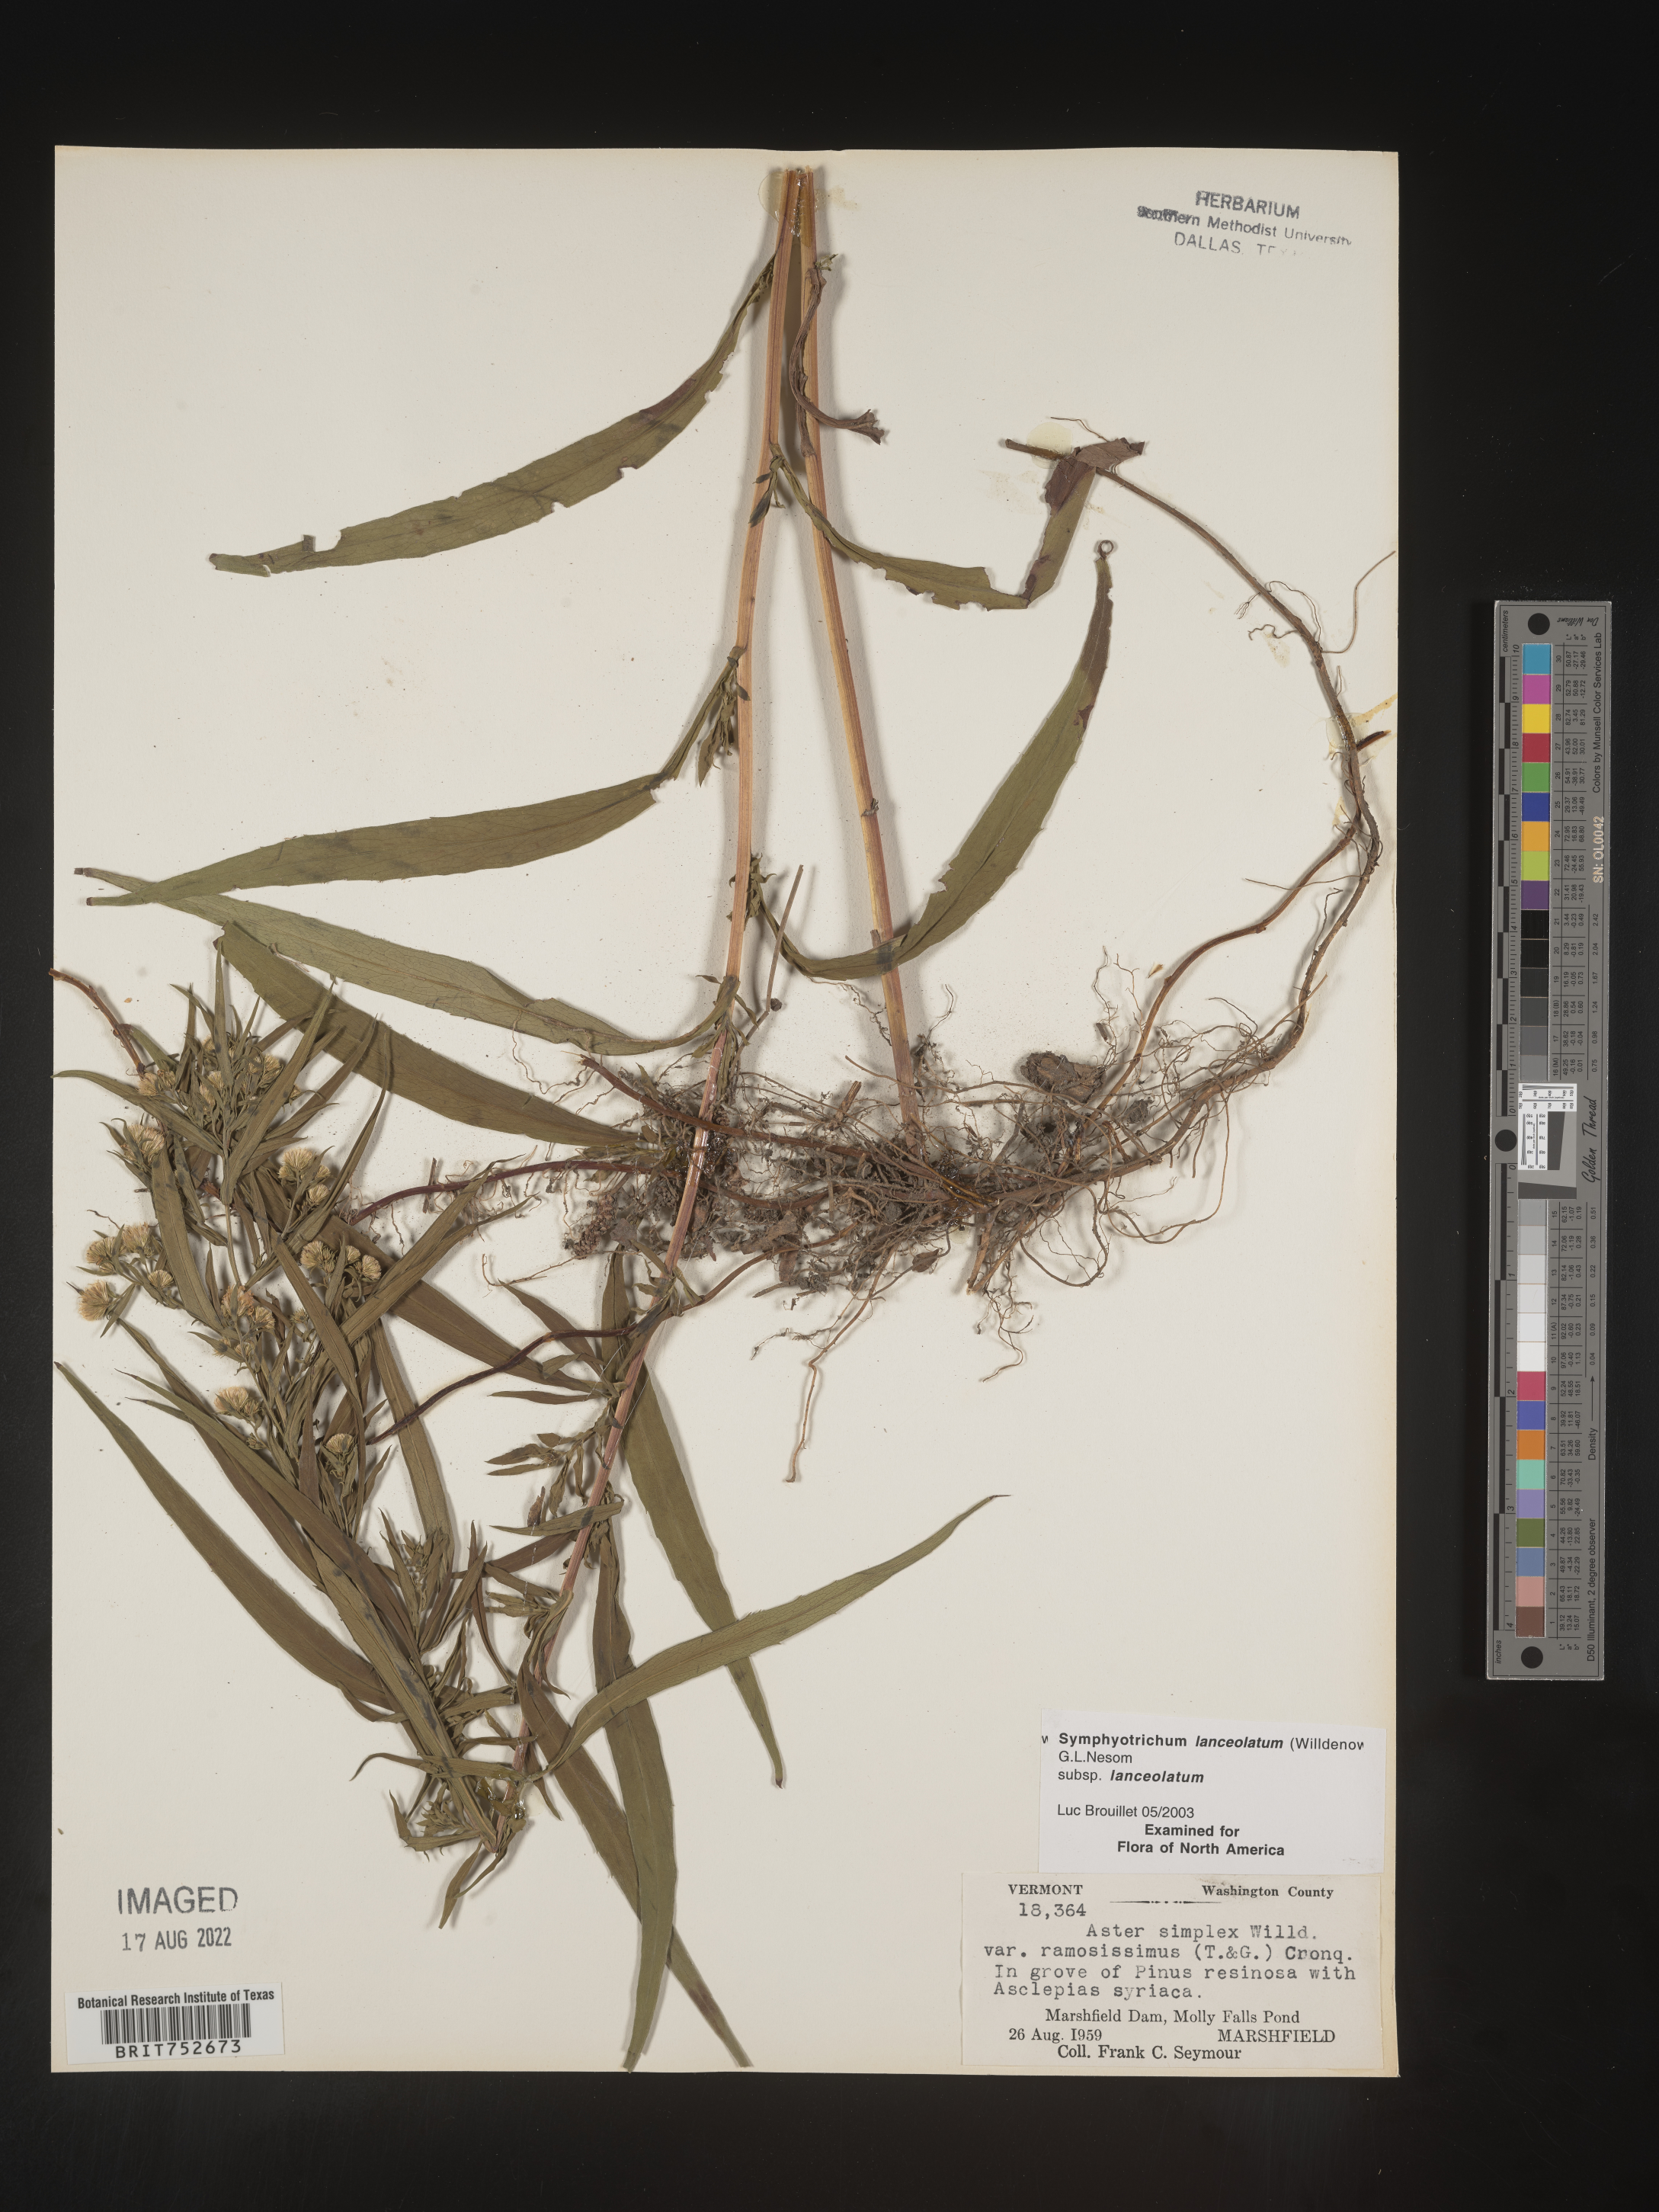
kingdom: Plantae
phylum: Tracheophyta
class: Magnoliopsida
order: Asterales
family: Asteraceae
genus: Symphyotrichum
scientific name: Symphyotrichum lanceolatum
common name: Panicled aster
